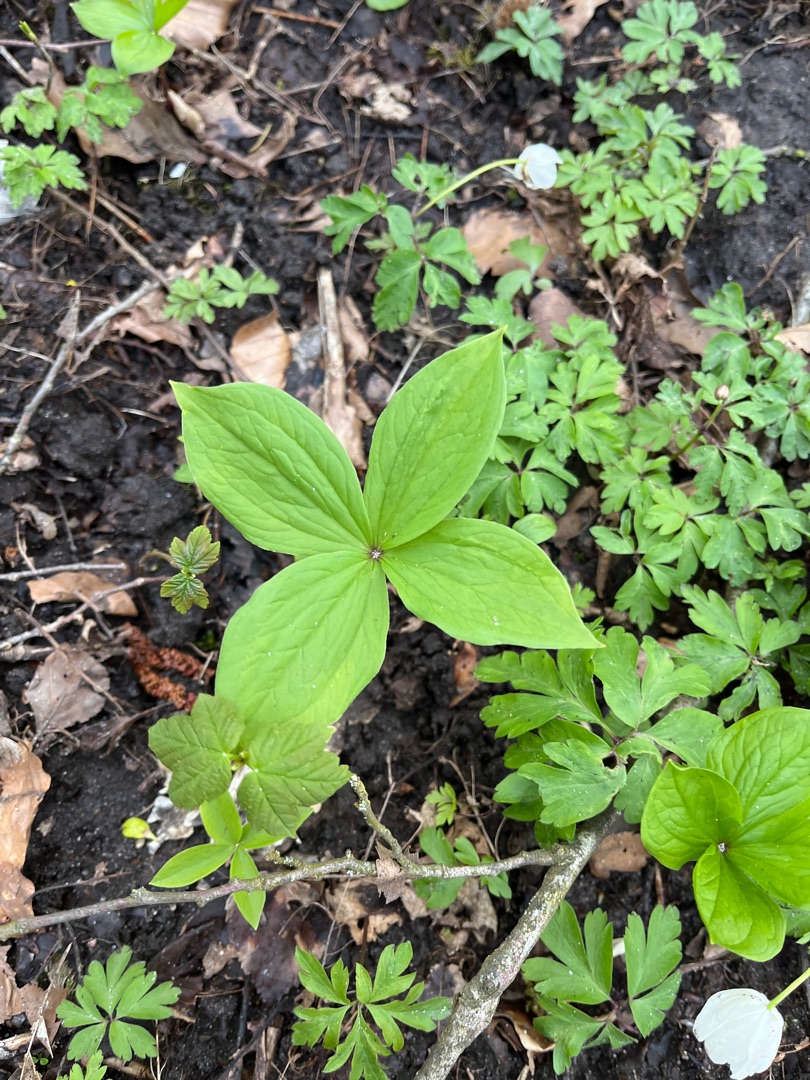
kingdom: Plantae
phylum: Tracheophyta
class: Liliopsida
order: Liliales
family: Melanthiaceae
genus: Paris
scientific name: Paris quadrifolia
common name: Firblad
